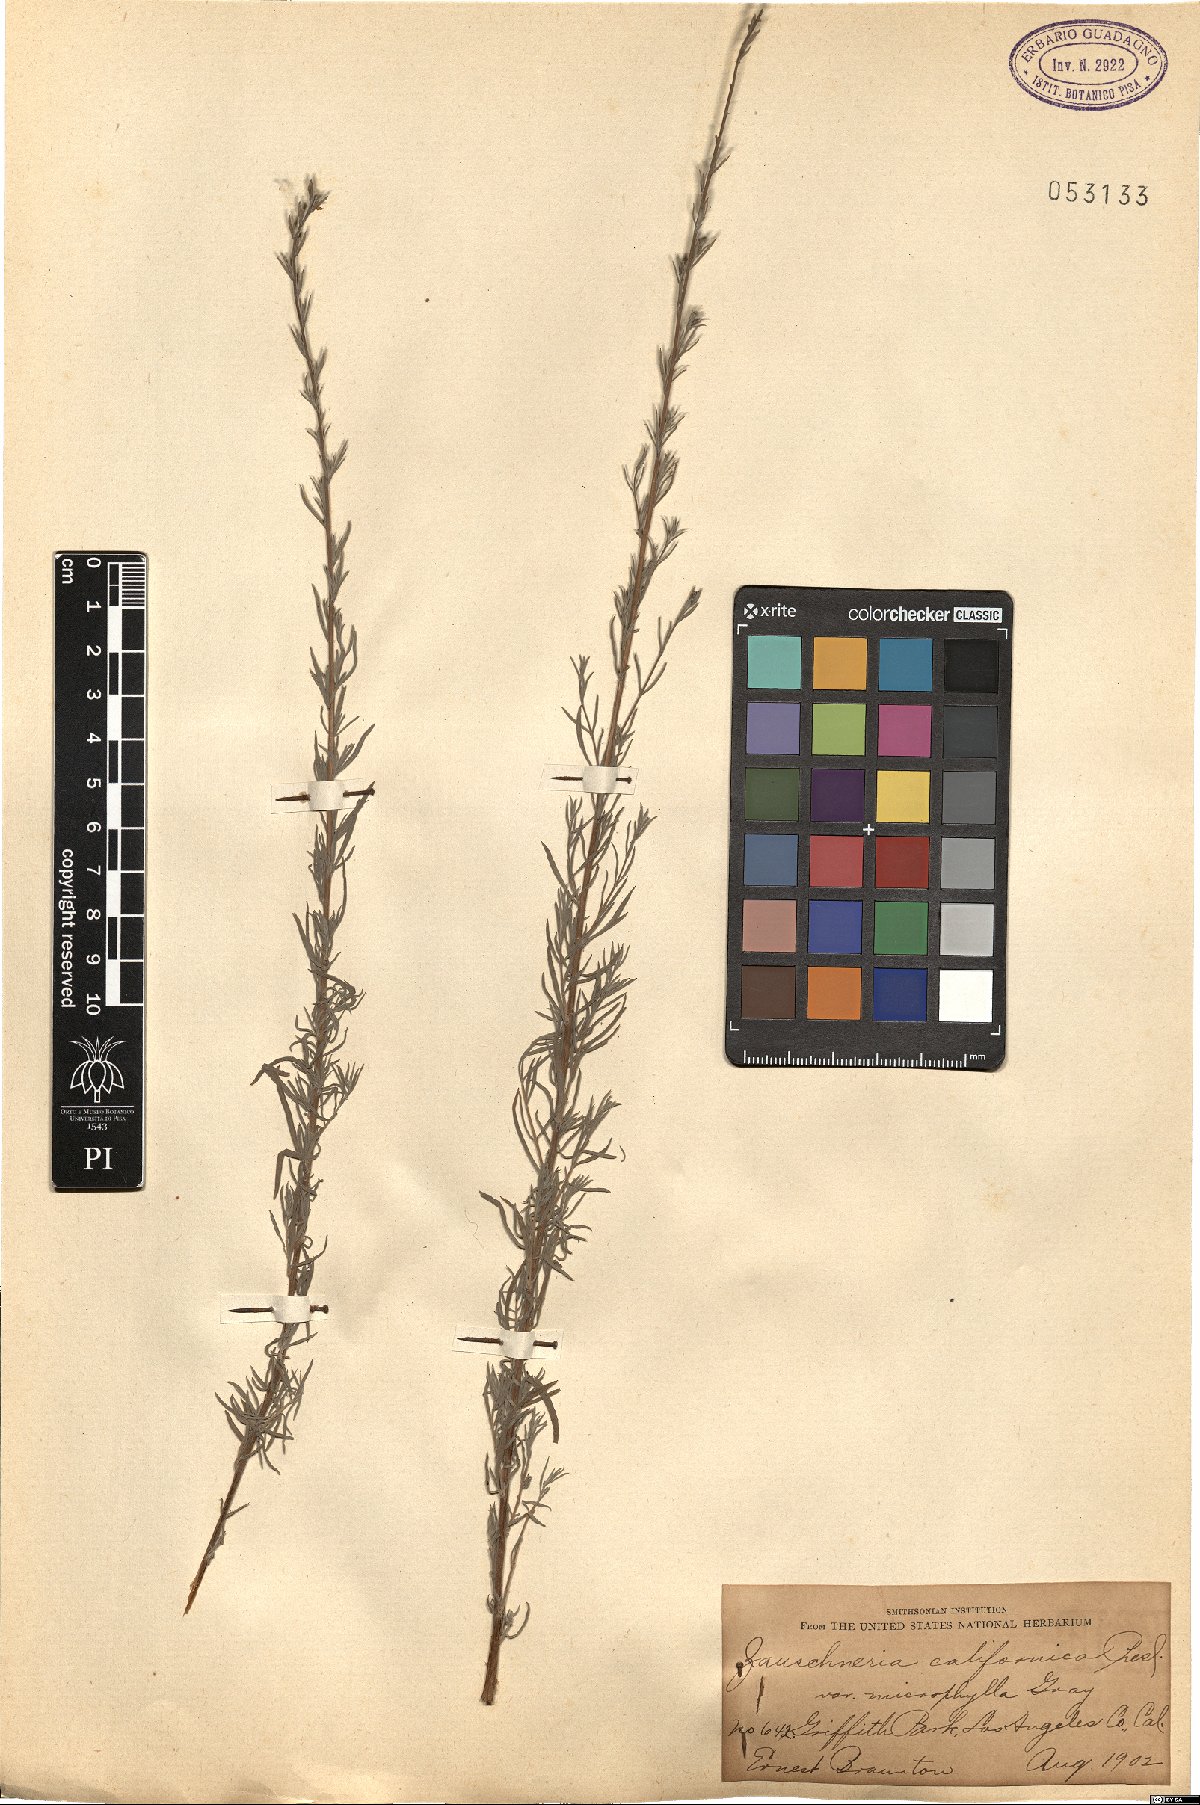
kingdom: Plantae
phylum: Tracheophyta
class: Magnoliopsida
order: Myrtales
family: Onagraceae
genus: Epilobium
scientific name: Epilobium canum
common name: California-fuchsia
